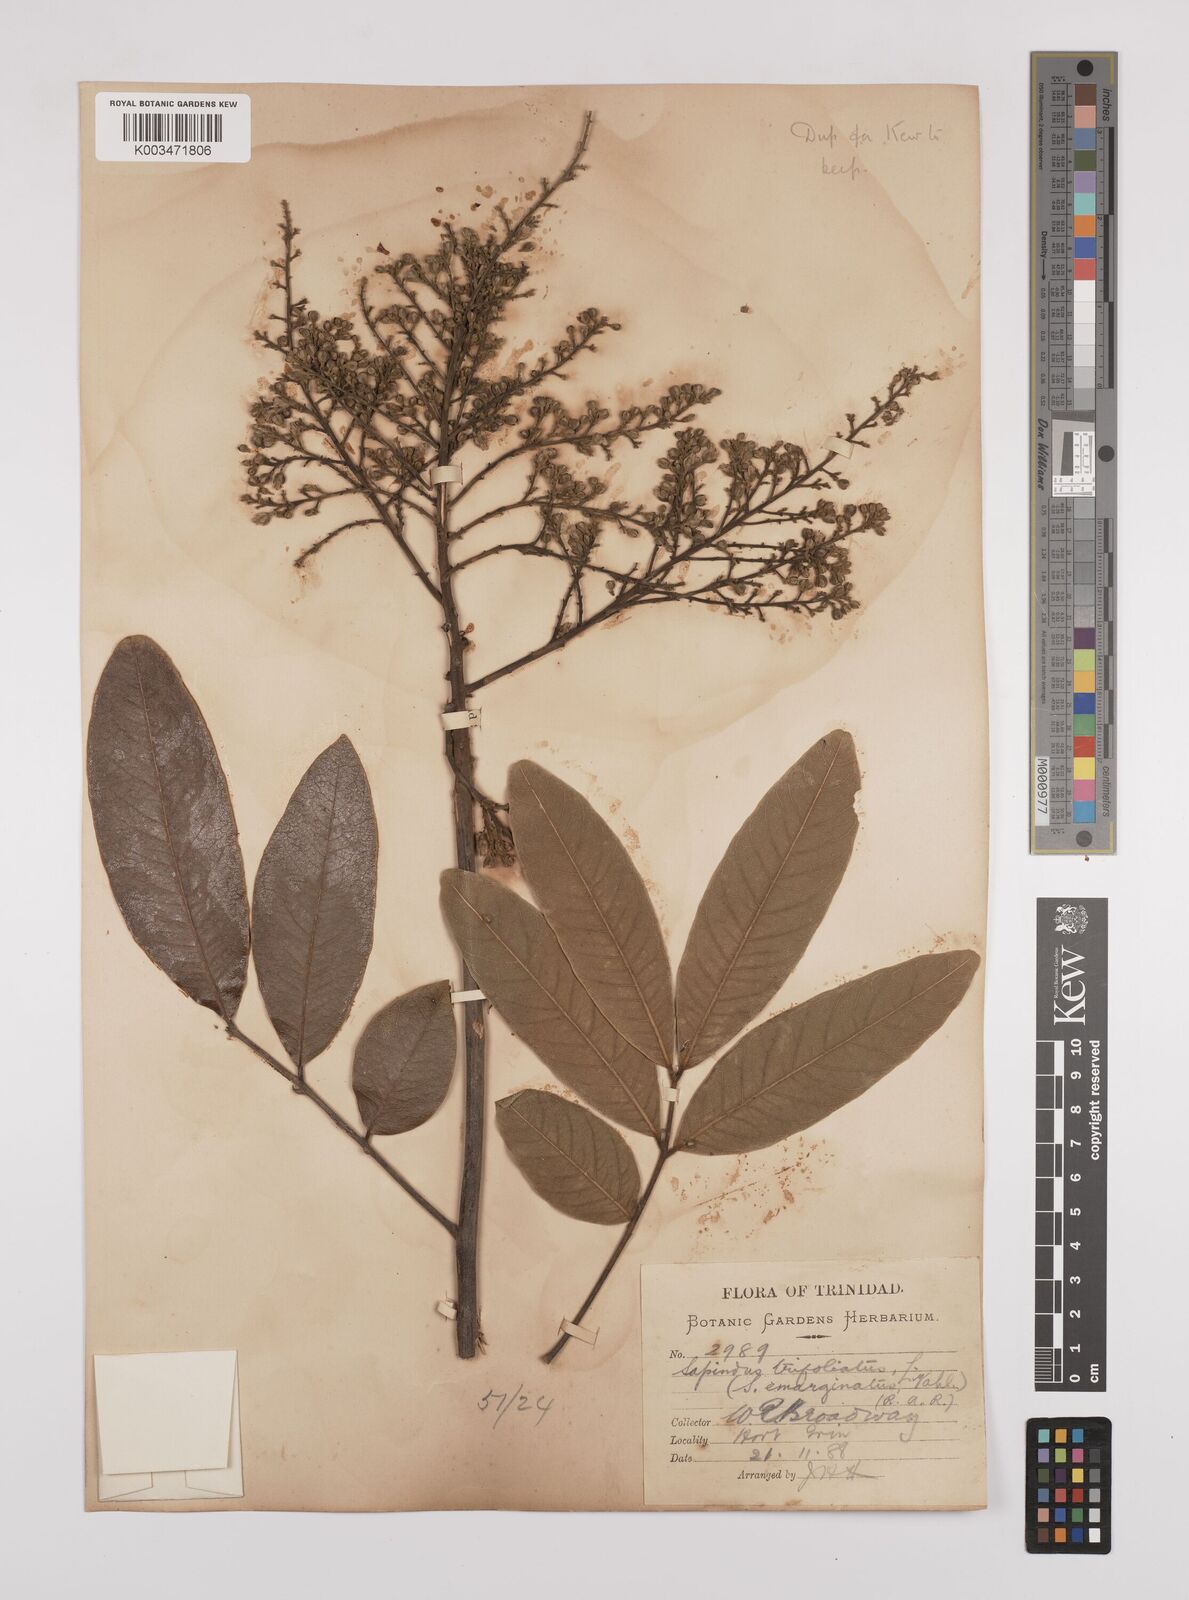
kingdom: Plantae
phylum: Tracheophyta
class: Magnoliopsida
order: Sapindales
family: Sapindaceae
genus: Sapindus
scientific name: Sapindus trifoliatus
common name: Three-leaf soapberry
